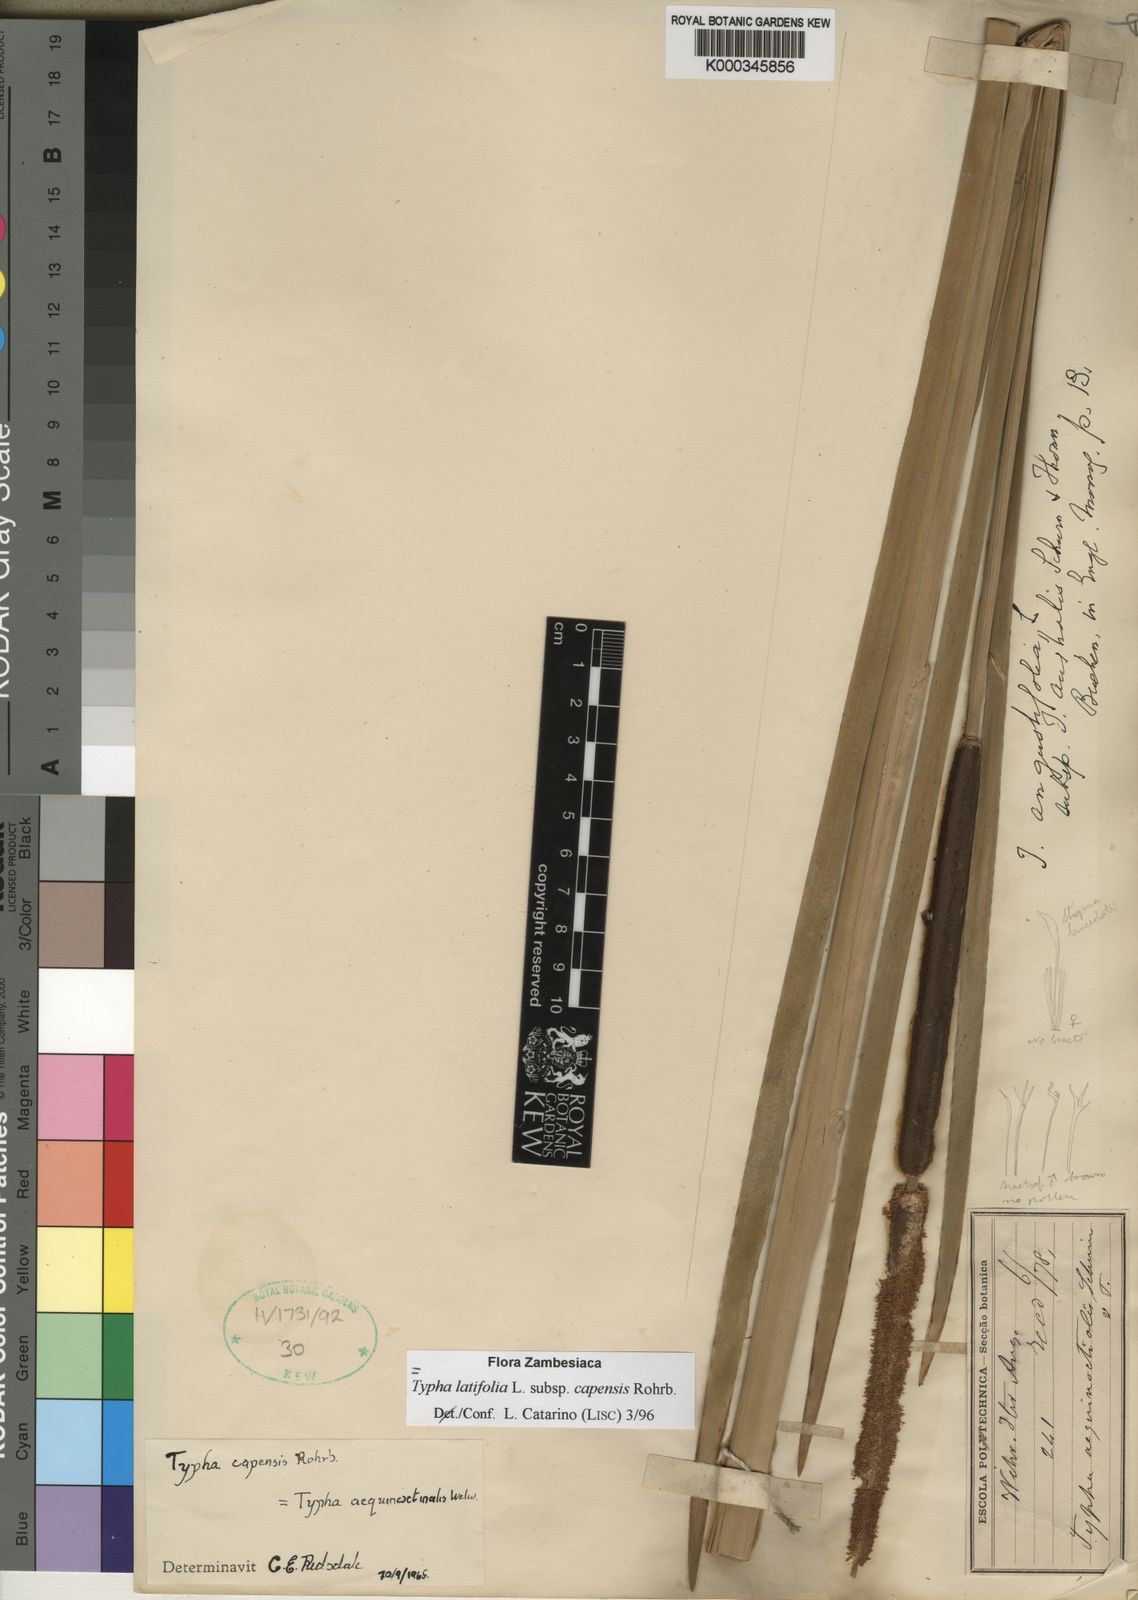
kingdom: Plantae
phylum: Tracheophyta
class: Liliopsida
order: Poales
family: Typhaceae
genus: Typha
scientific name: Typha latifolia
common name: Broadleaf cattail
